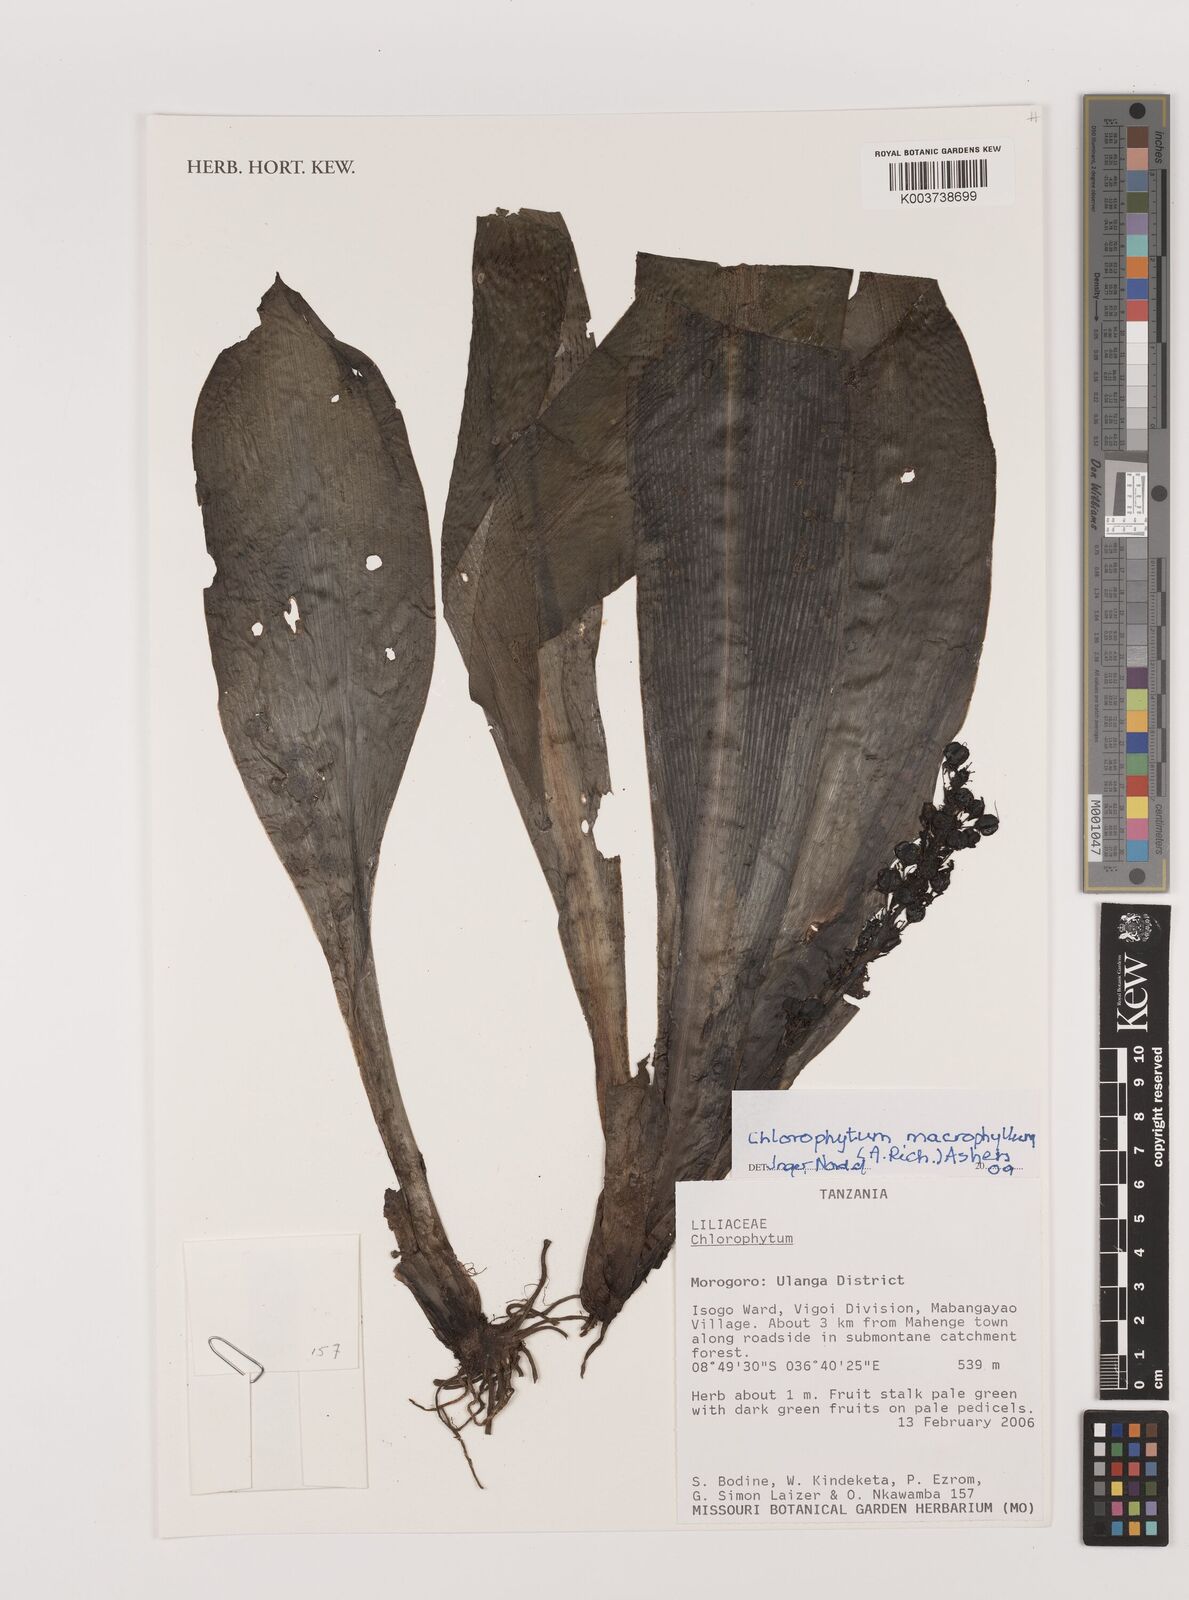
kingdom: Plantae
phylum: Tracheophyta
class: Liliopsida
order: Asparagales
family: Asparagaceae
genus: Chlorophytum
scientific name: Chlorophytum macrophyllum
